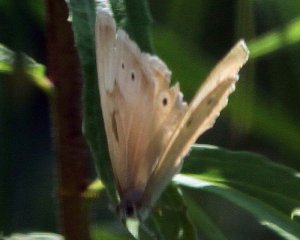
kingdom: Animalia
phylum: Arthropoda
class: Insecta
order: Lepidoptera
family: Nymphalidae
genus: Lethe
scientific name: Lethe eurydice
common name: Eyed Brown
